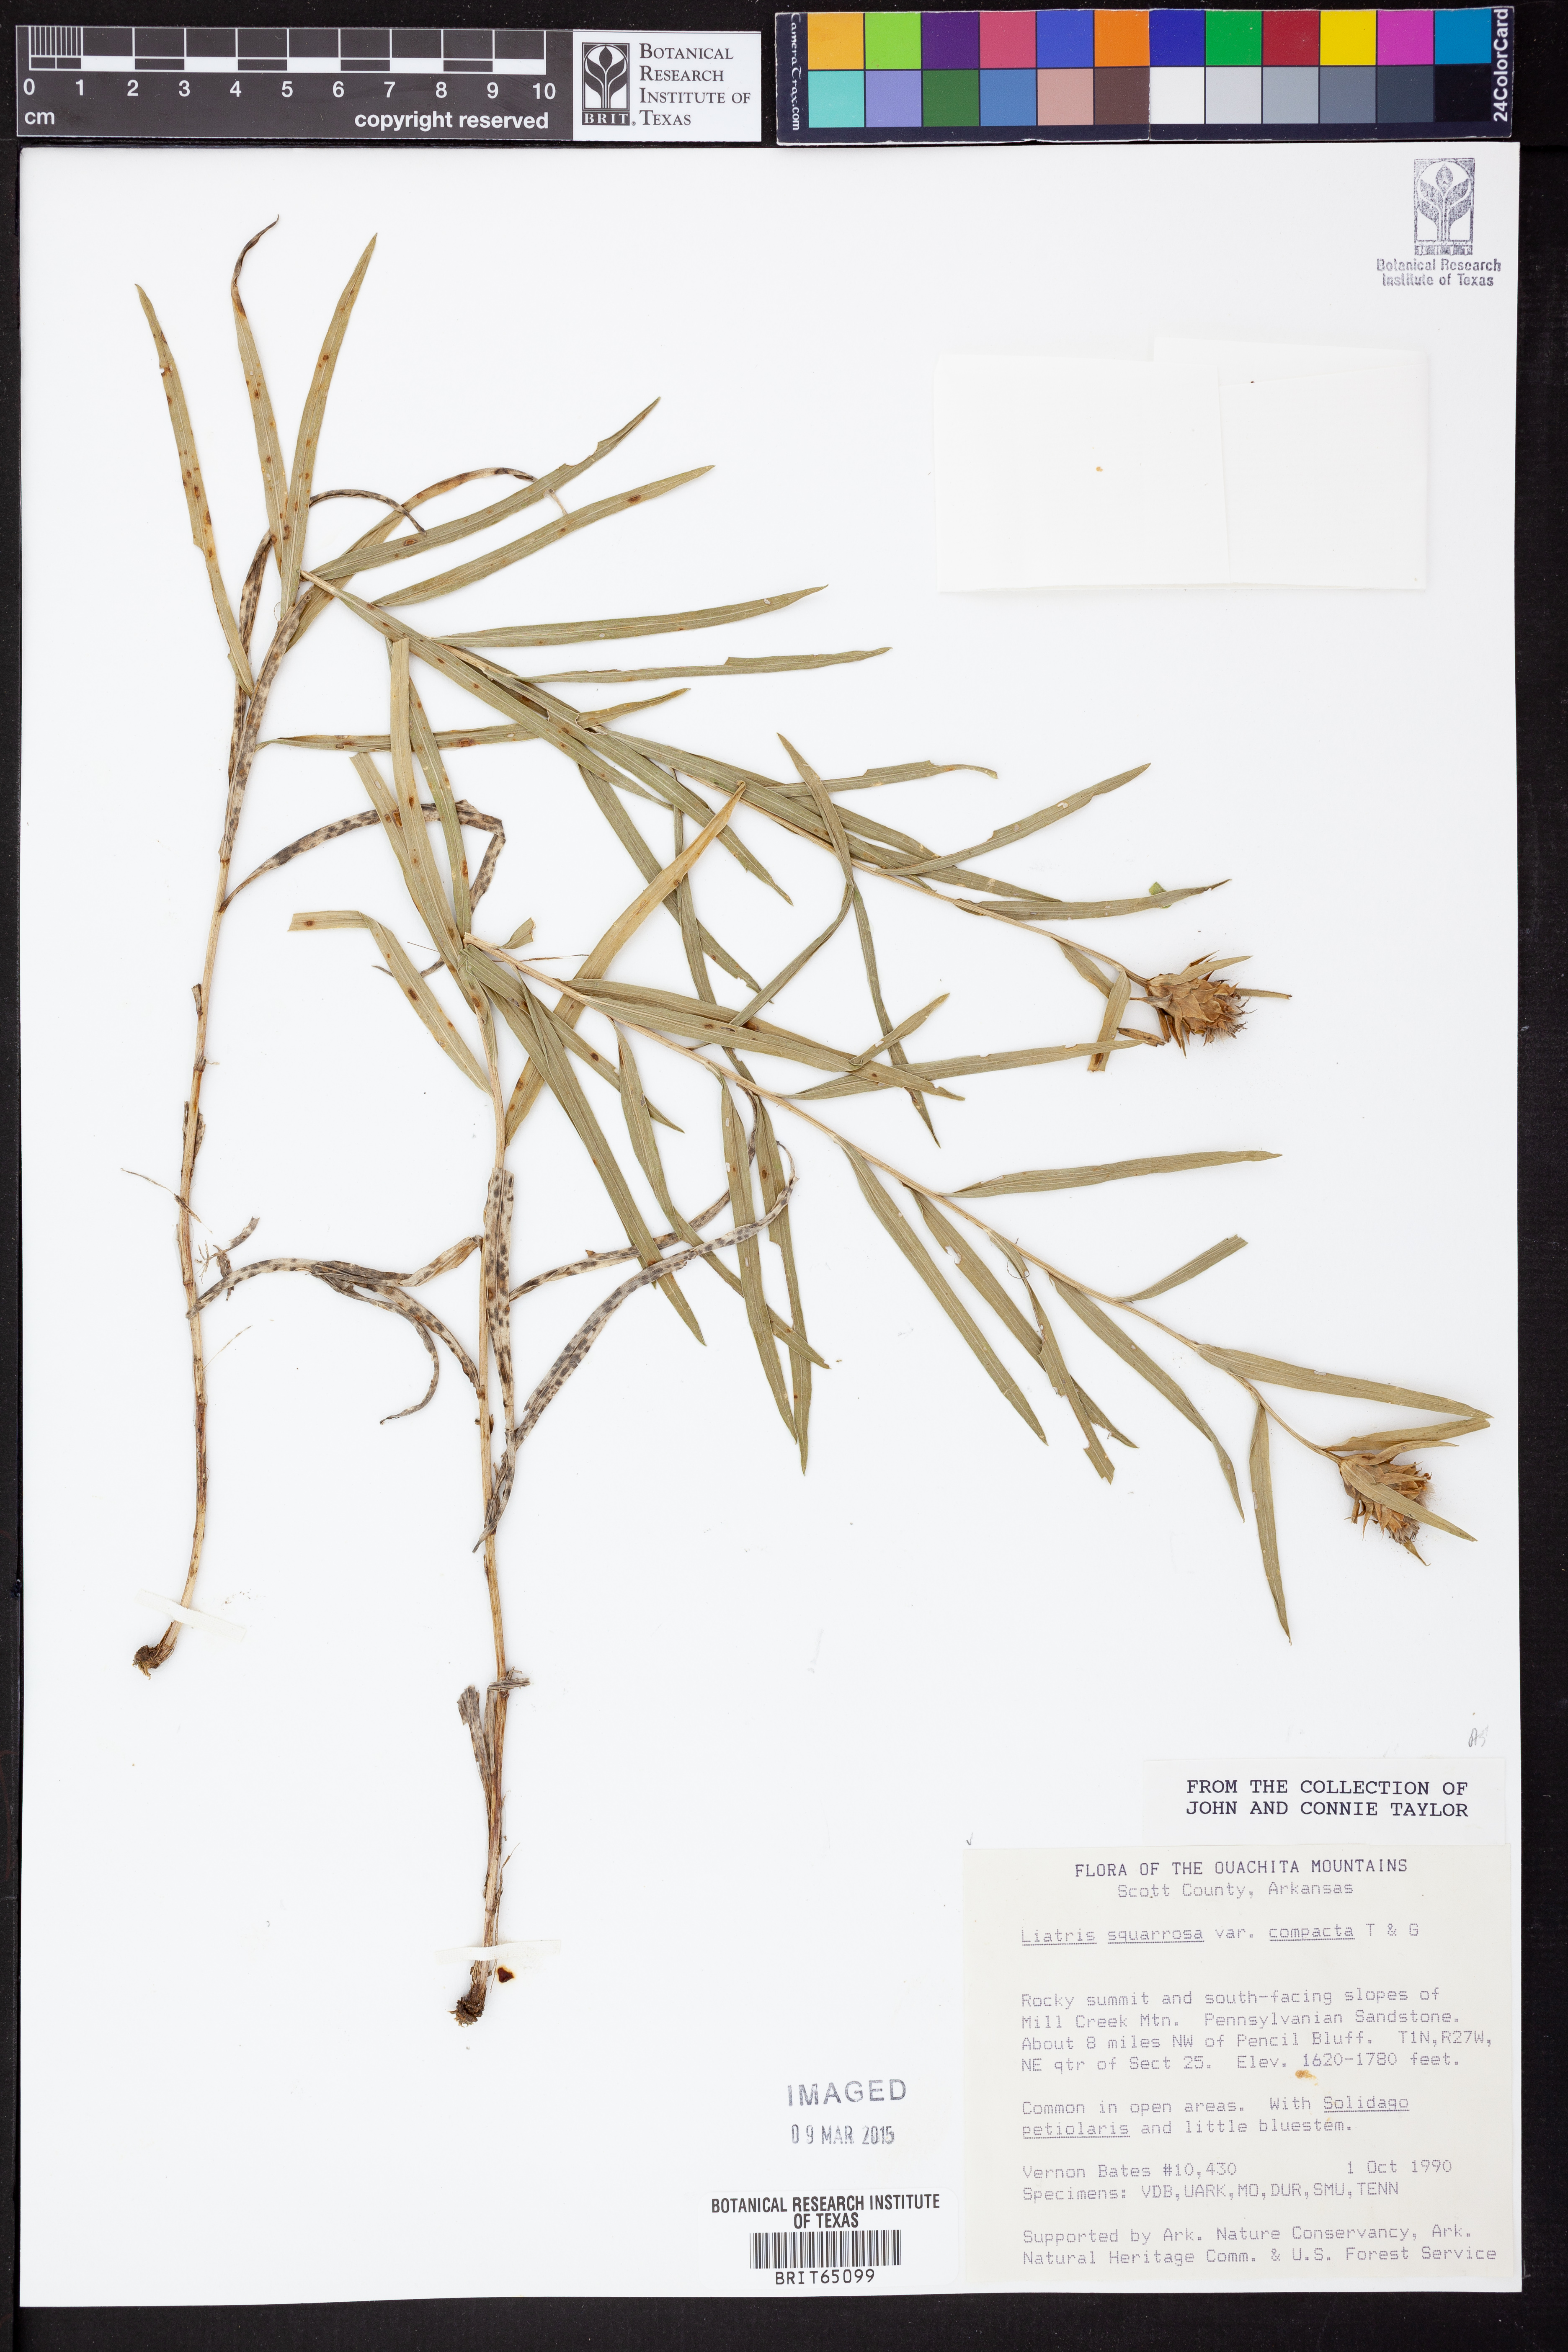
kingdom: Plantae
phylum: Tracheophyta
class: Magnoliopsida
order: Asterales
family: Asteraceae
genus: Liatris
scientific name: Liatris compacta
